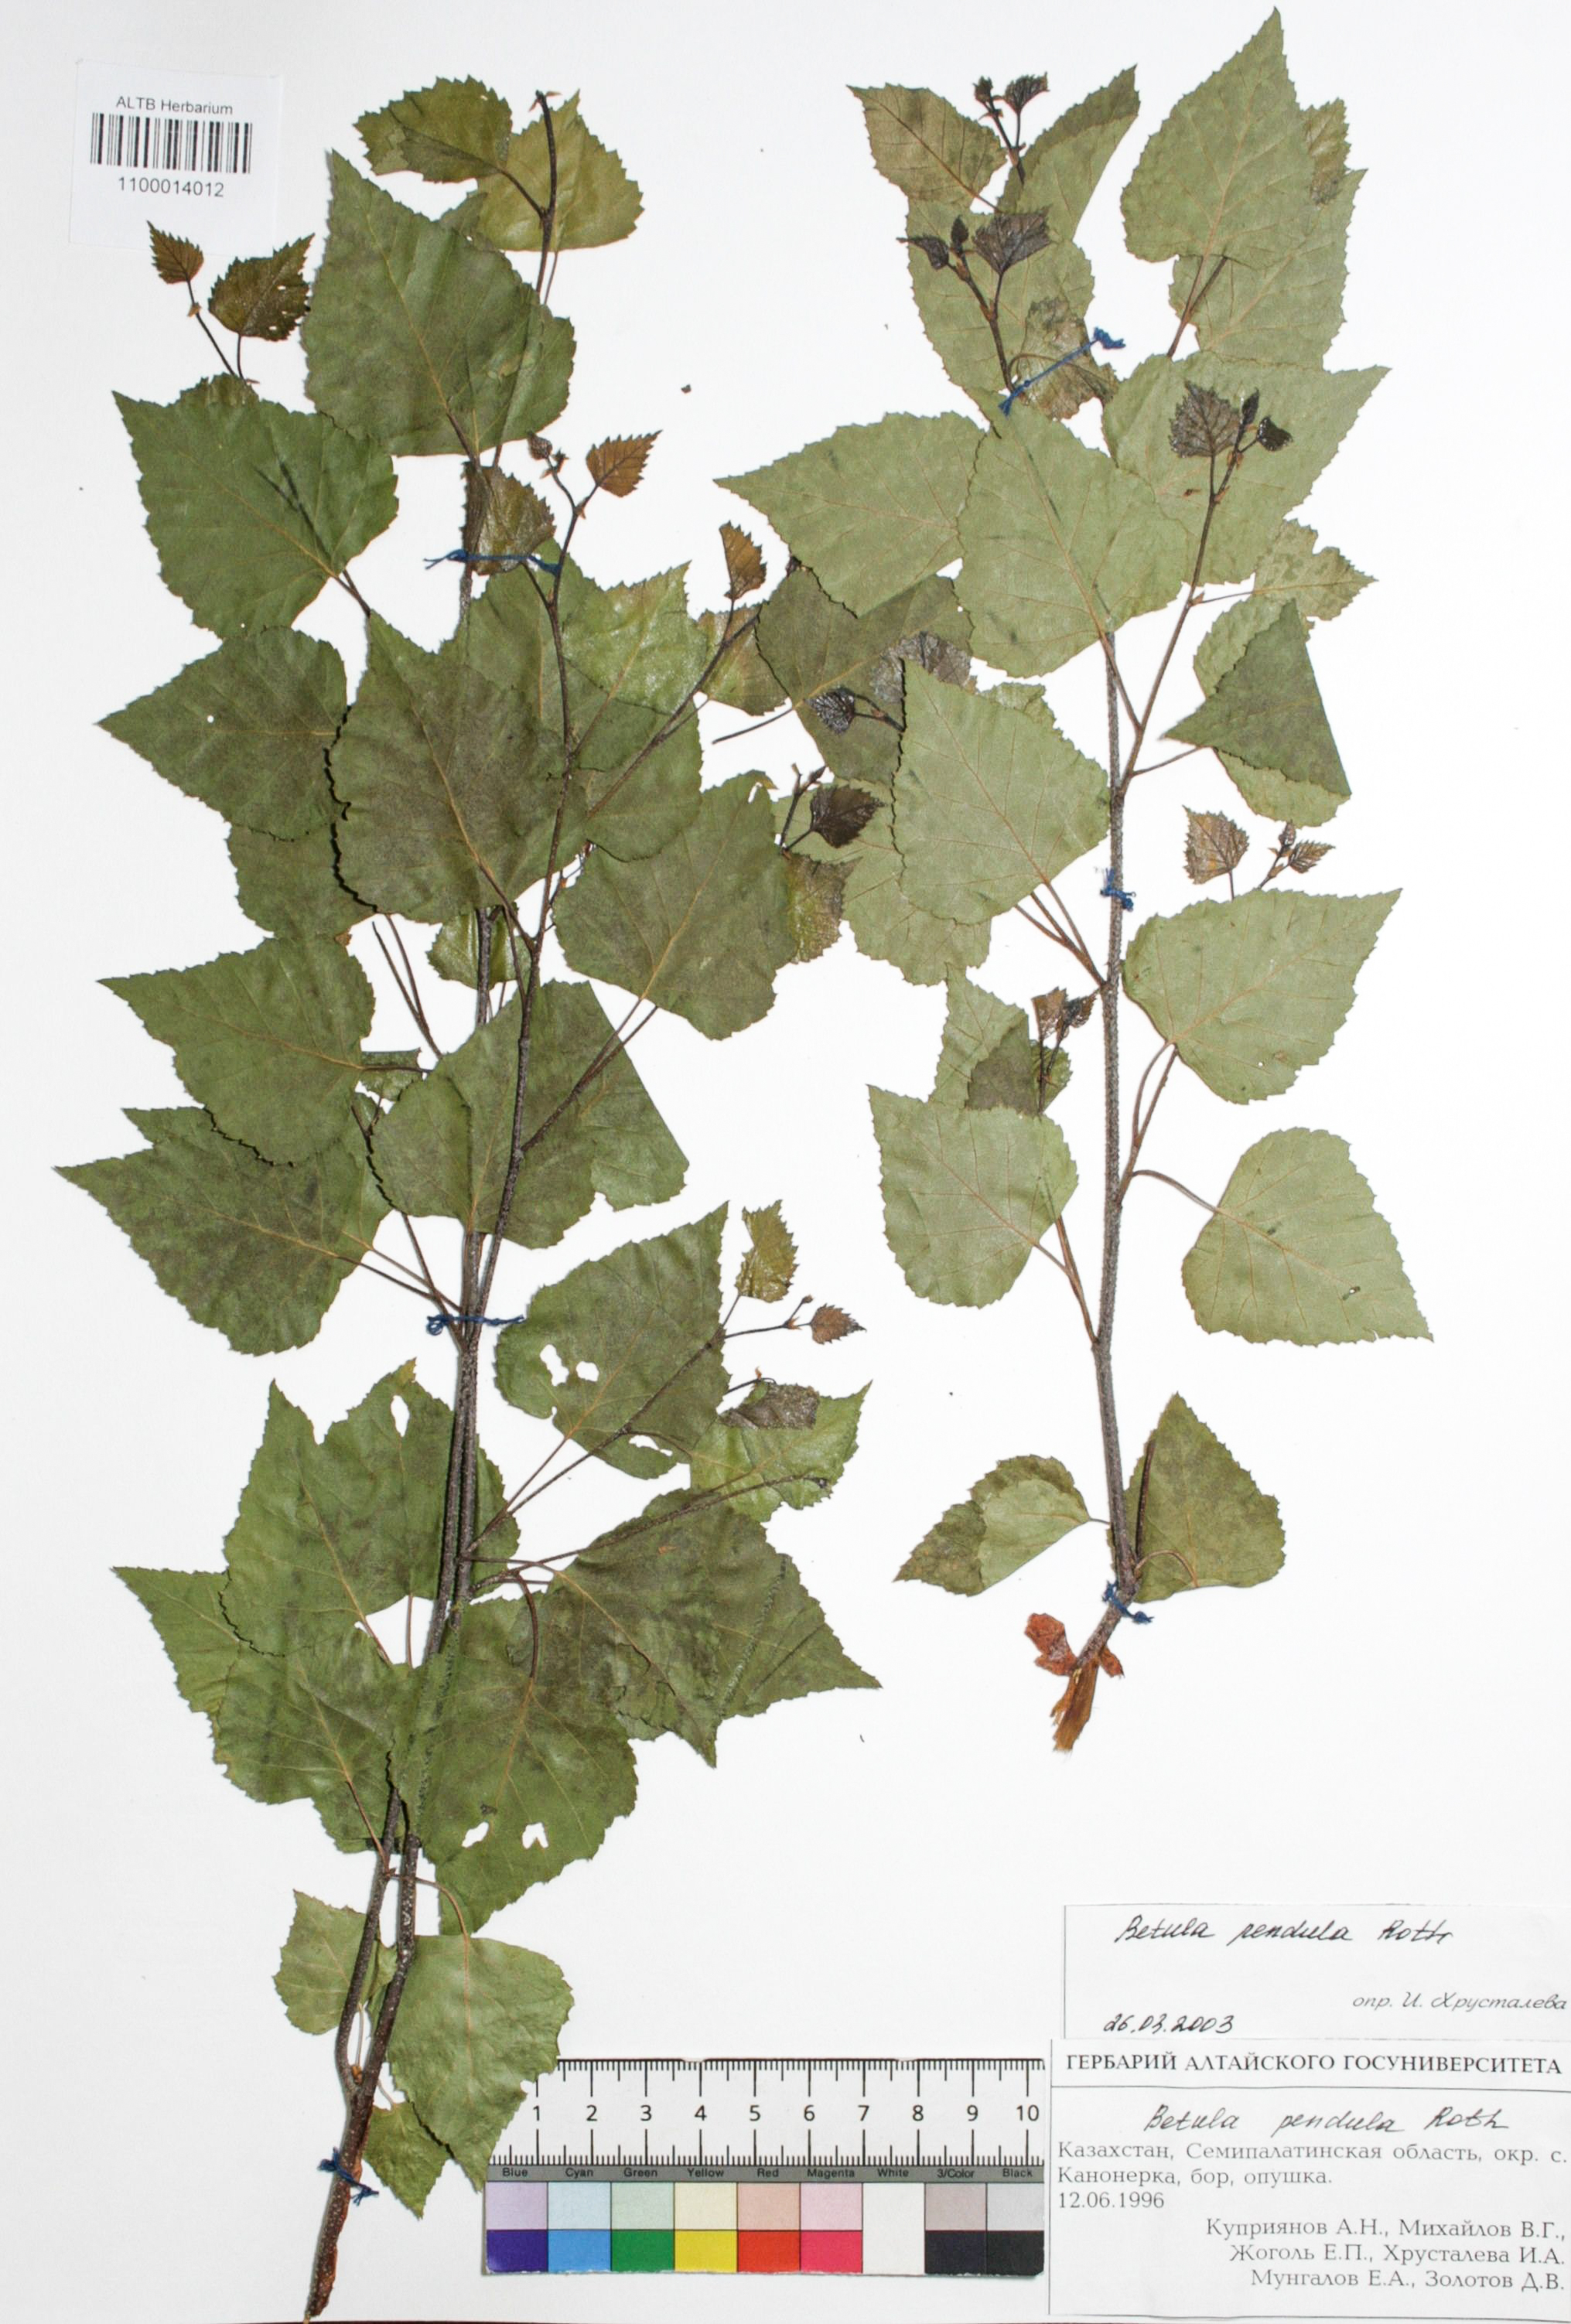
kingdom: Plantae
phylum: Tracheophyta
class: Magnoliopsida
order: Fagales
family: Betulaceae
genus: Betula
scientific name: Betula pendula
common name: Silver birch
